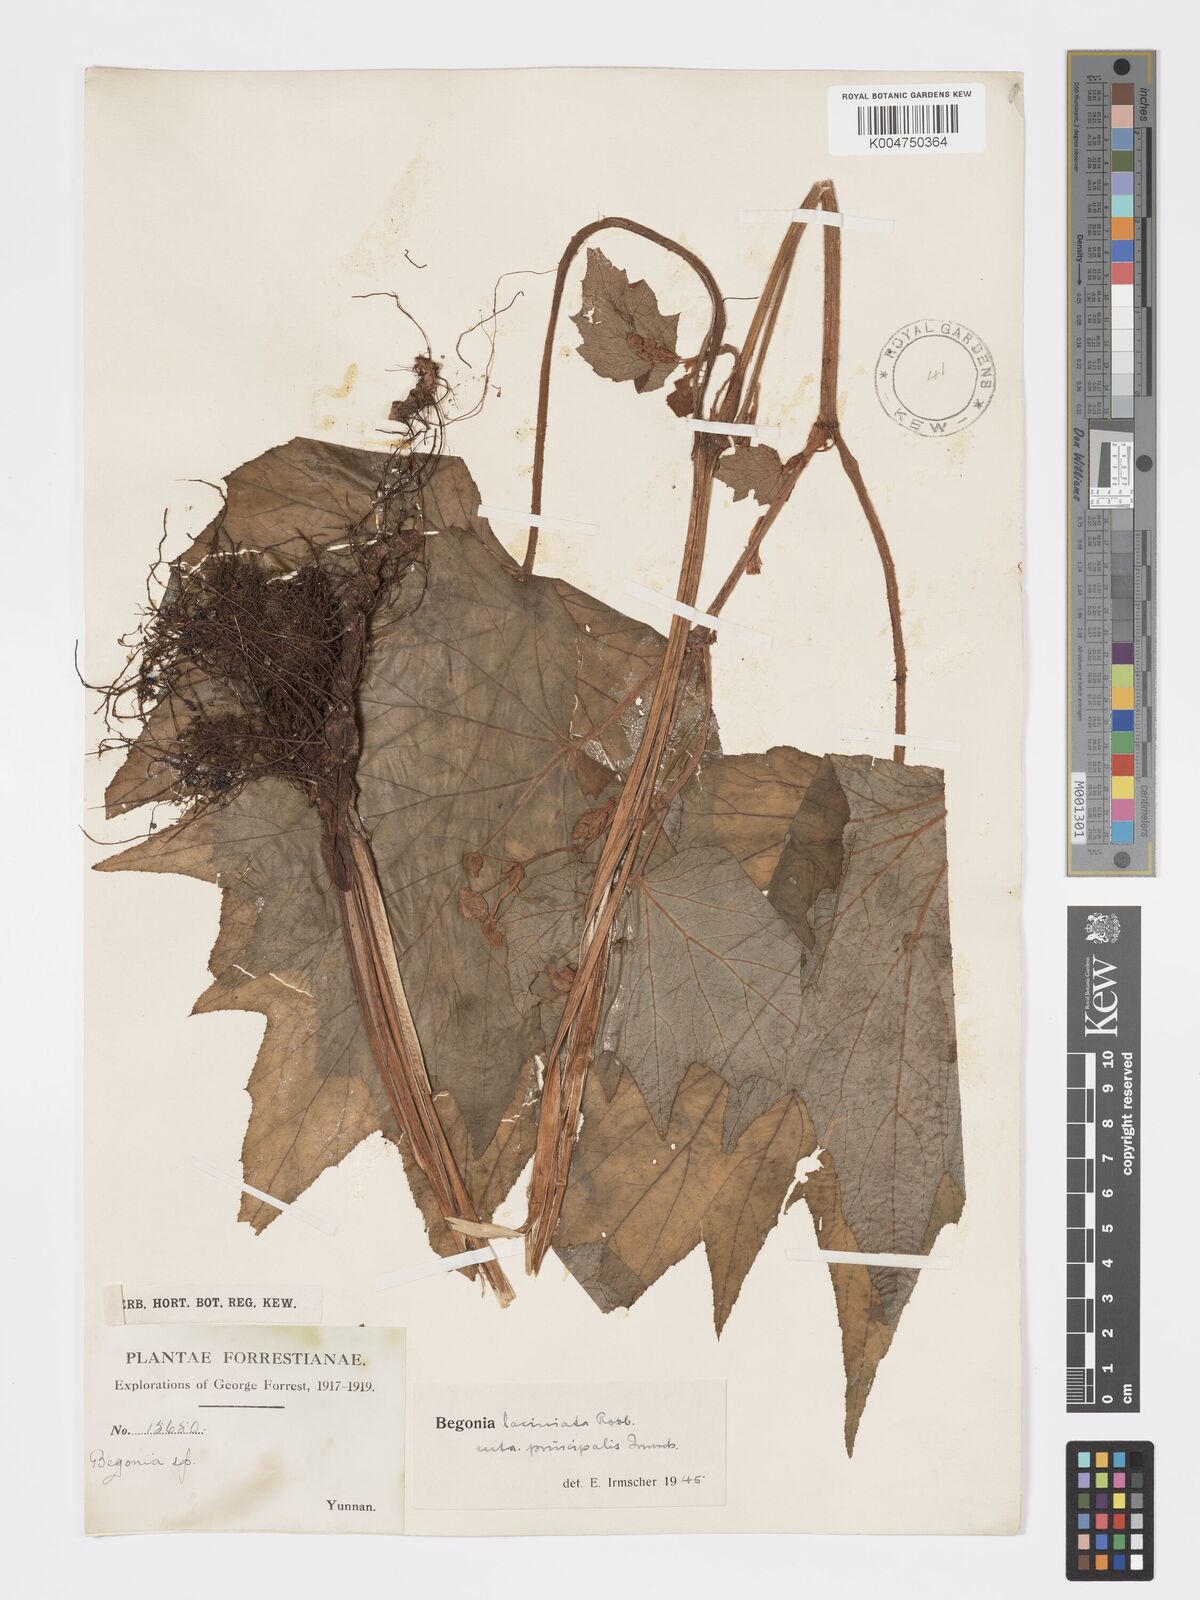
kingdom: Plantae
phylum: Tracheophyta
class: Magnoliopsida
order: Cucurbitales
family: Begoniaceae
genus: Begonia
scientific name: Begonia palmata
